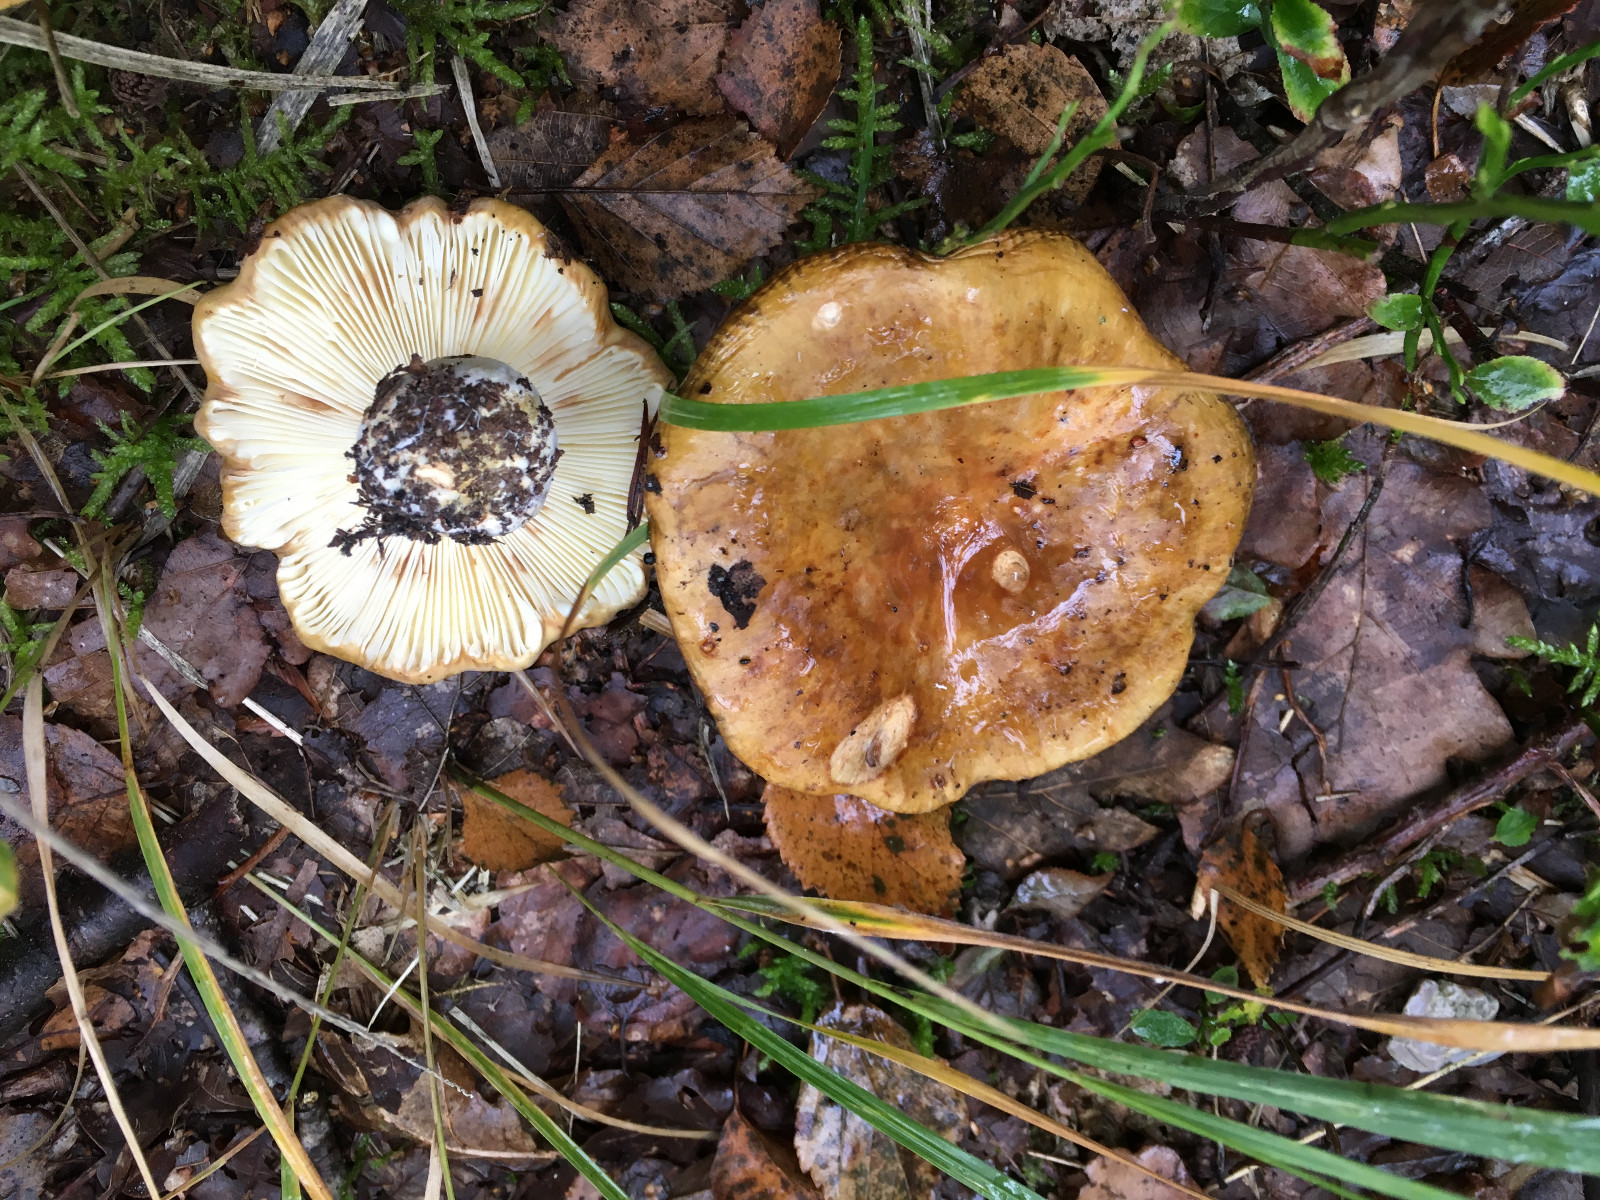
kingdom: Fungi
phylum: Basidiomycota
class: Agaricomycetes
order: Russulales
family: Russulaceae
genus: Russula
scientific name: Russula
